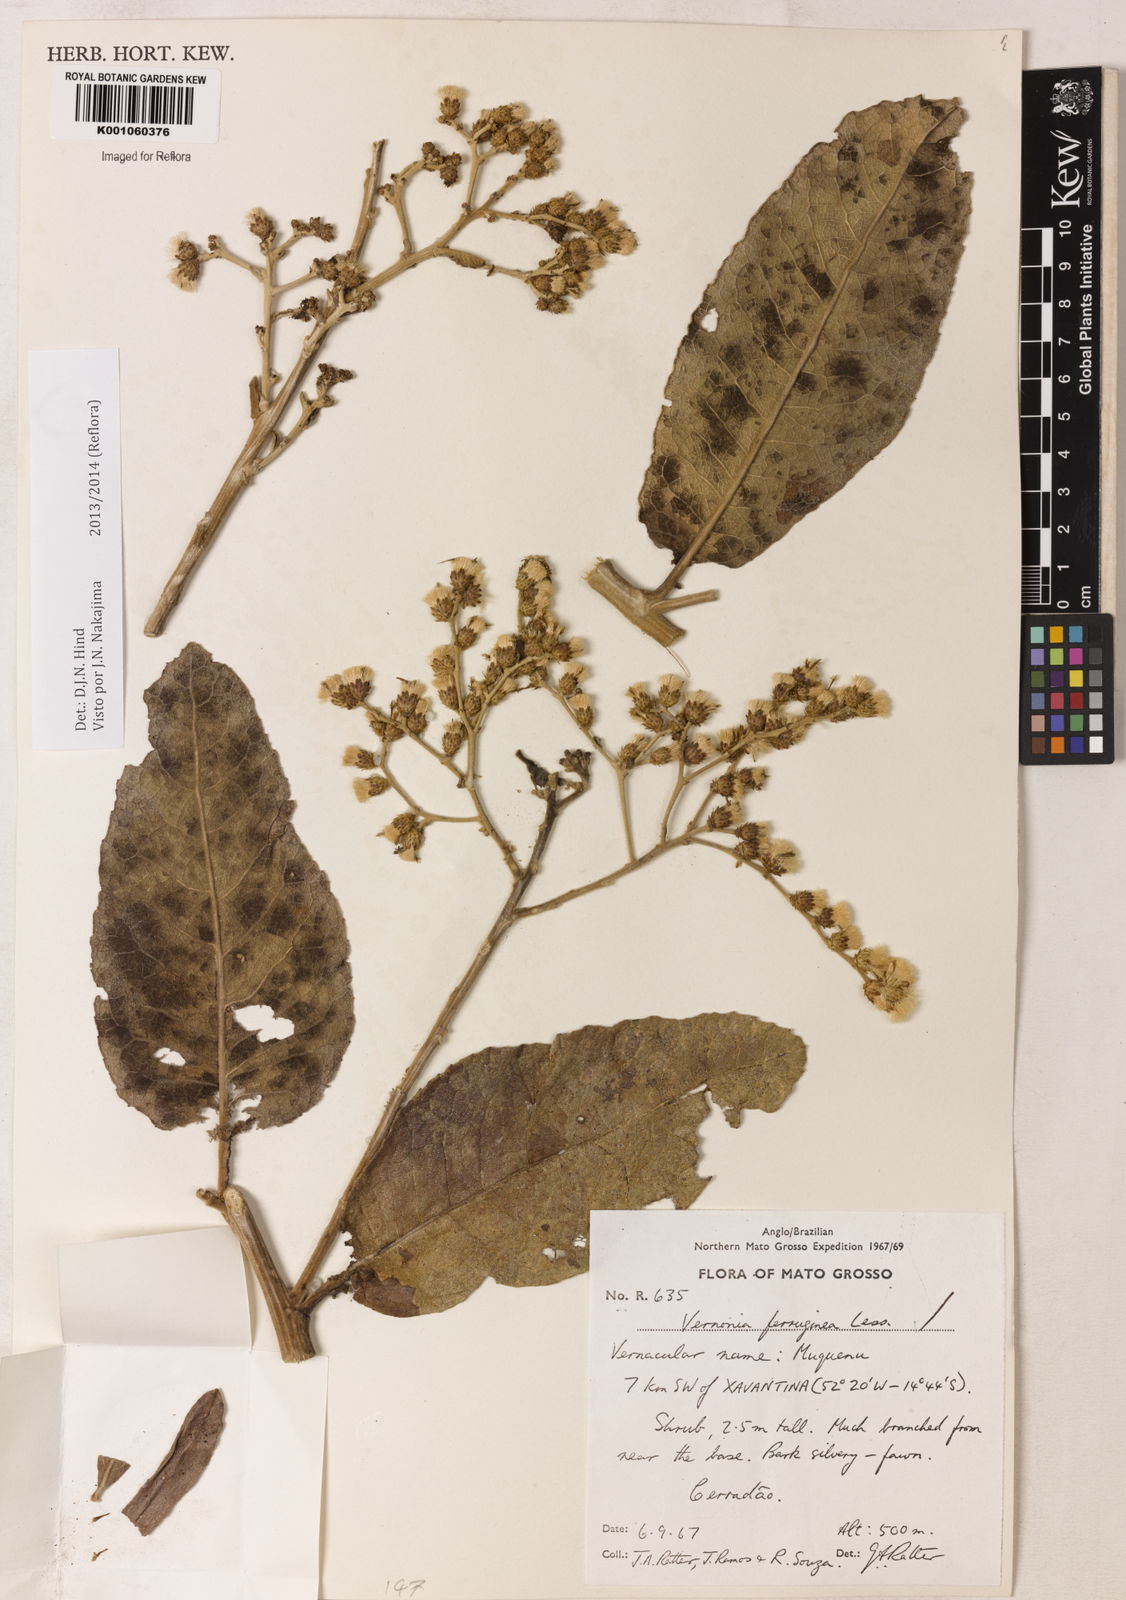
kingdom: Plantae
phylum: Tracheophyta
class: Magnoliopsida
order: Asterales
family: Asteraceae
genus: Vernonanthura
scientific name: Vernonanthura ferruginea
